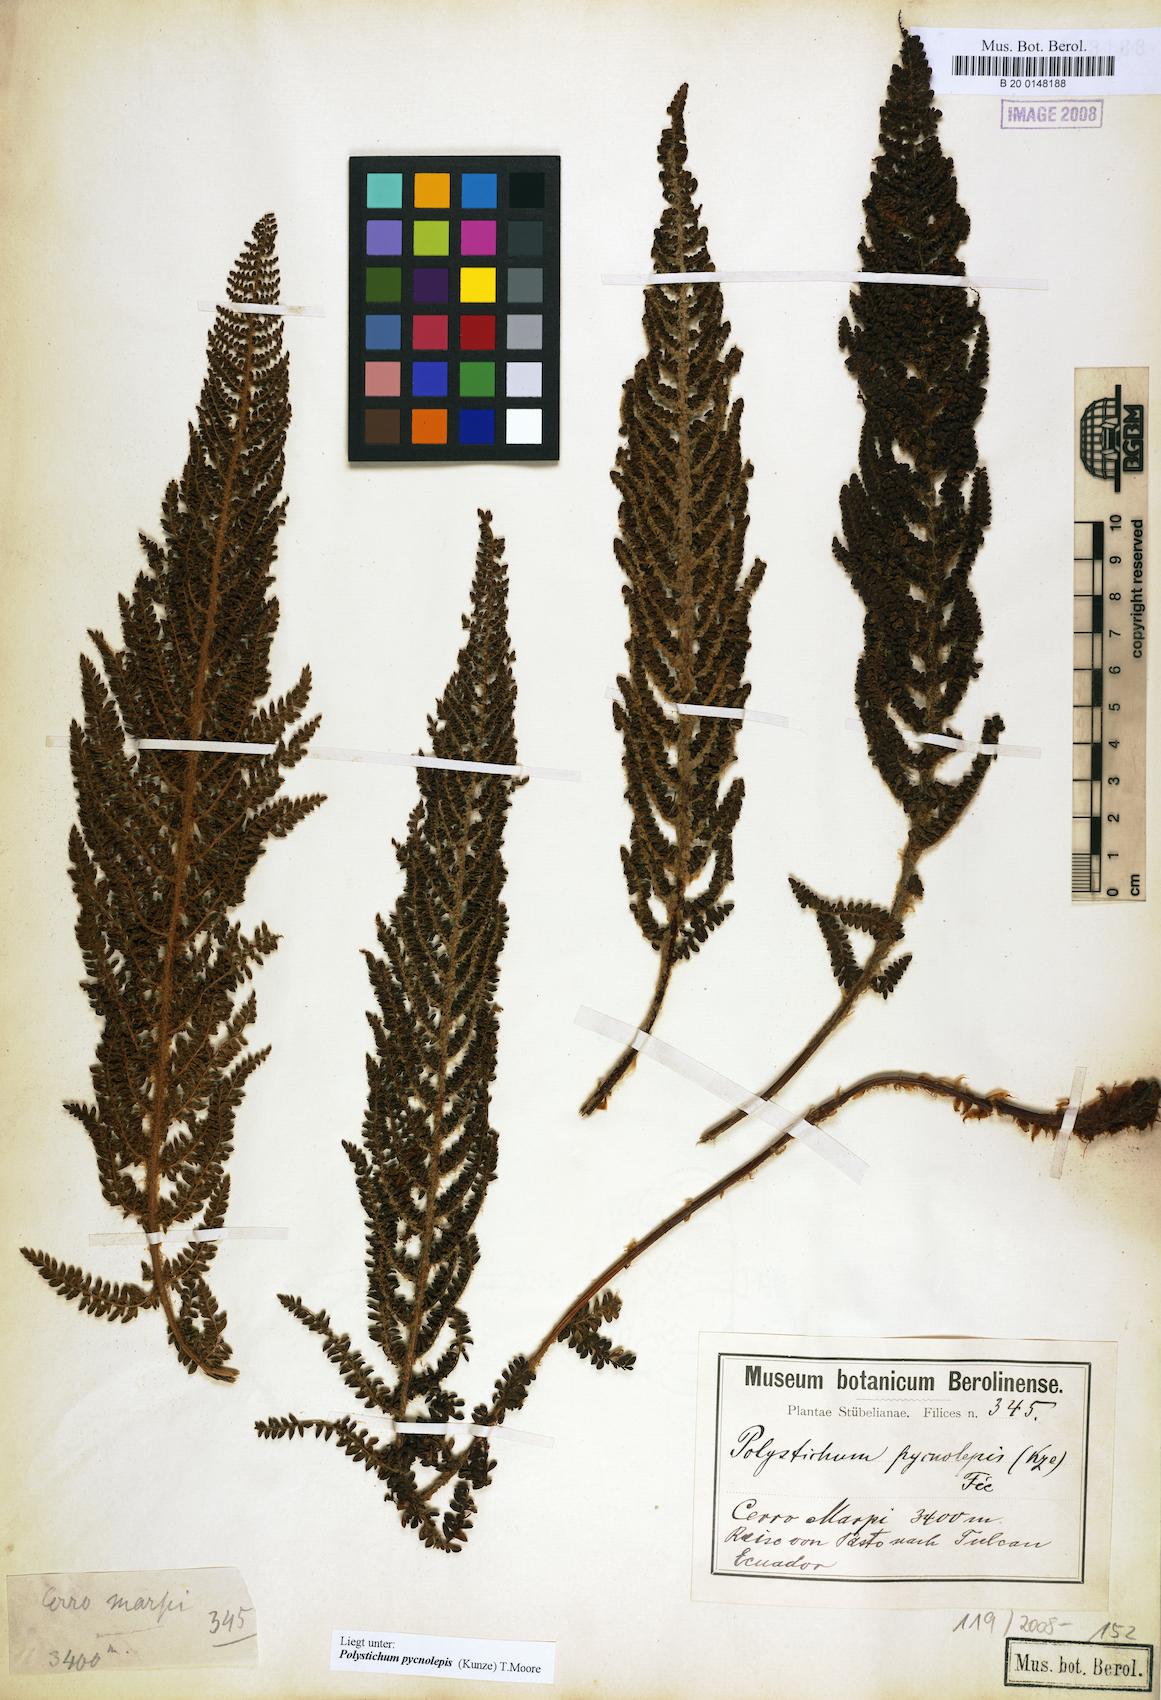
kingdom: Plantae
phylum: Tracheophyta
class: Polypodiopsida
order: Polypodiales
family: Dryopteridaceae
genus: Polystichum
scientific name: Polystichum pycnolepis
